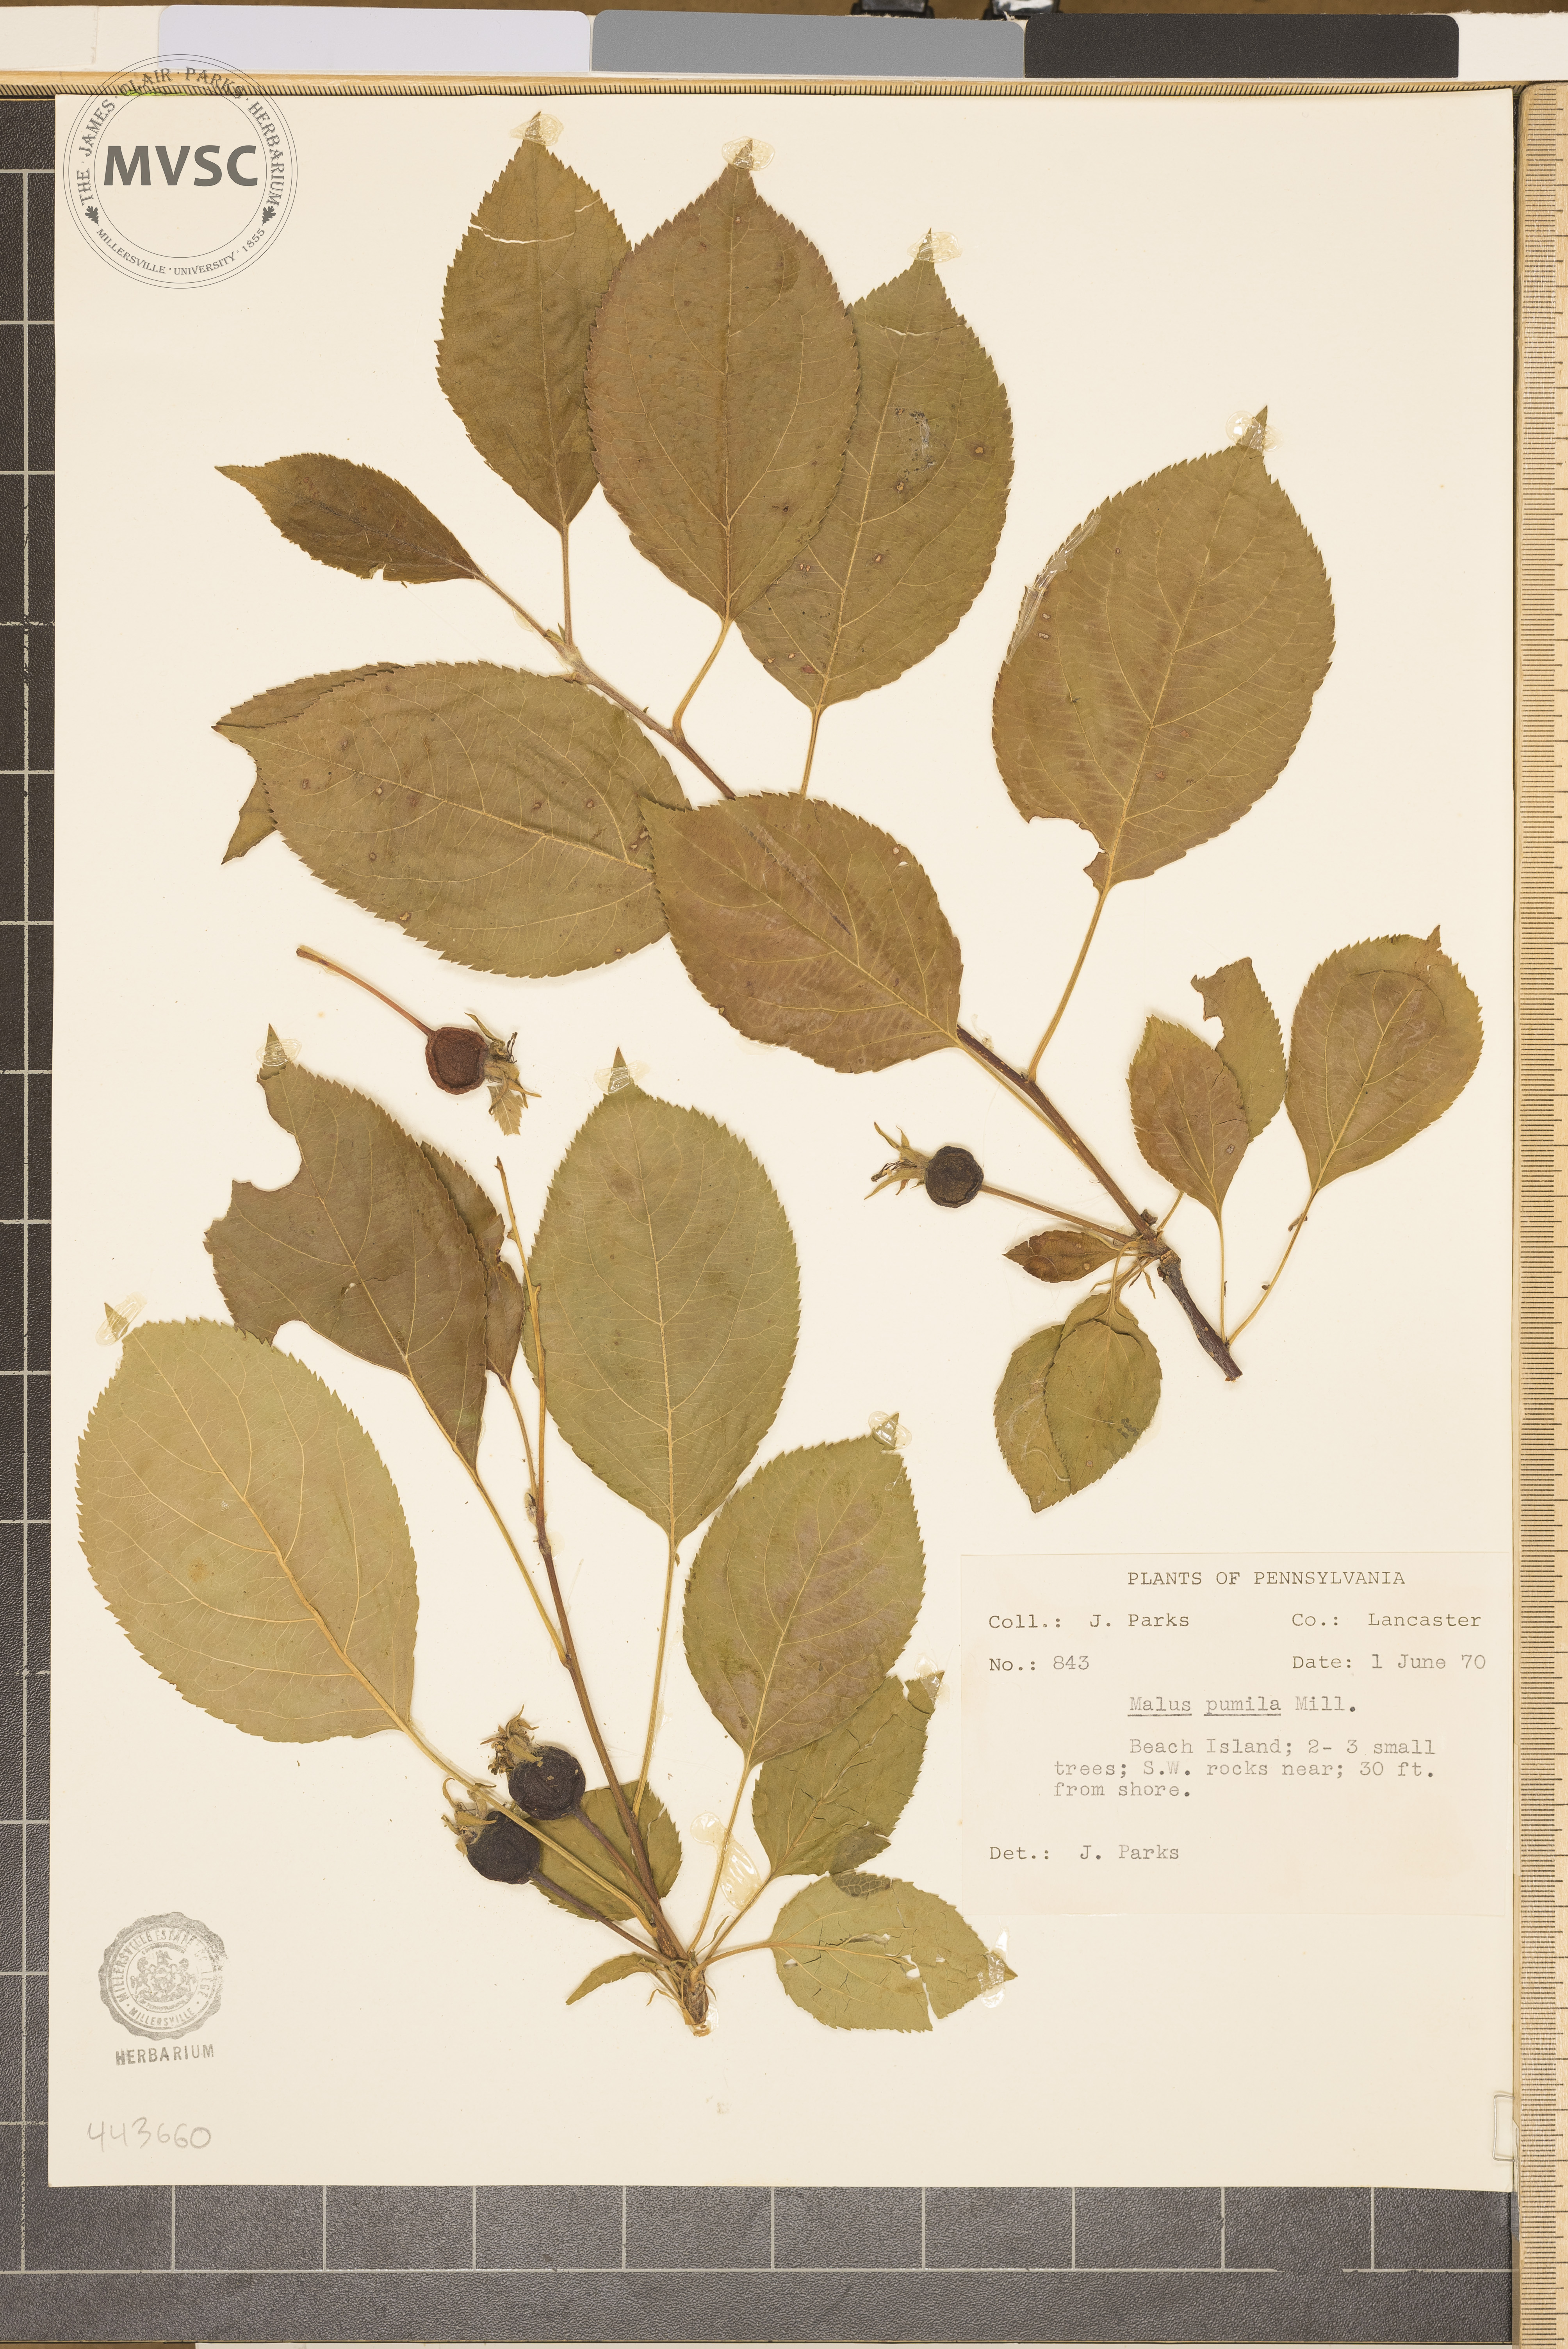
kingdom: Plantae
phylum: Tracheophyta
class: Magnoliopsida
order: Rosales
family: Rosaceae
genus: Malus
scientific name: Malus domestica
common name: Apple
